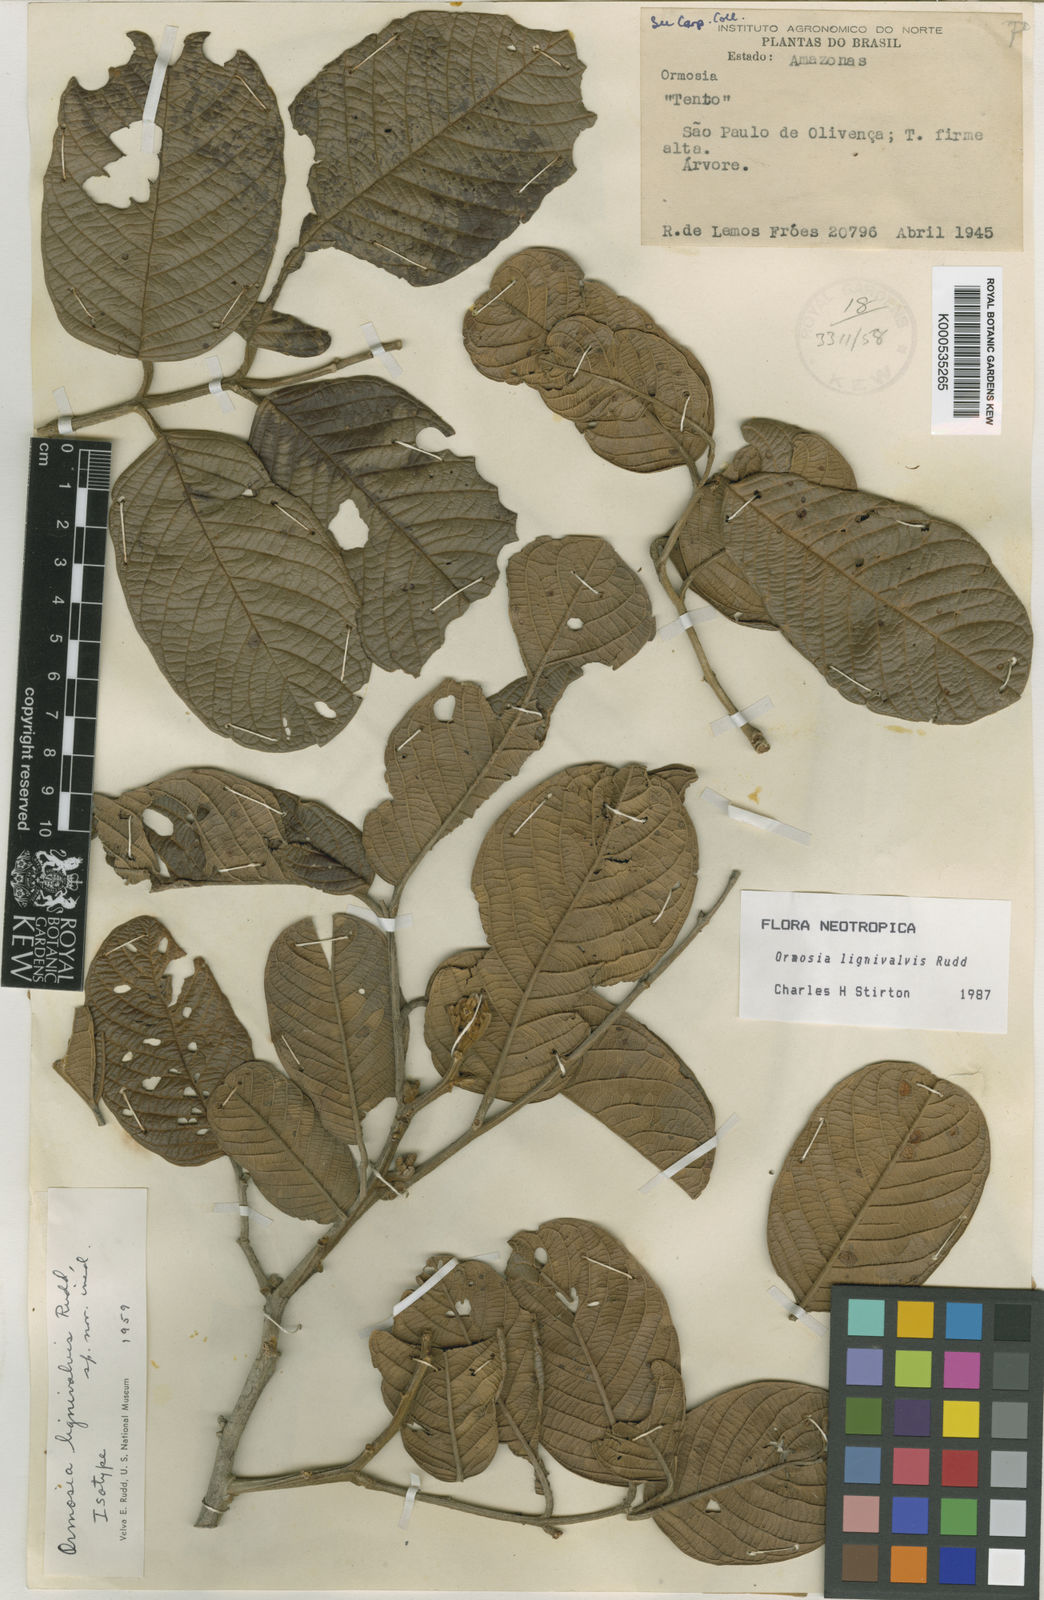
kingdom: Plantae
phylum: Tracheophyta
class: Magnoliopsida
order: Fabales
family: Fabaceae
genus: Ormosia
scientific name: Ormosia lignivalvis
